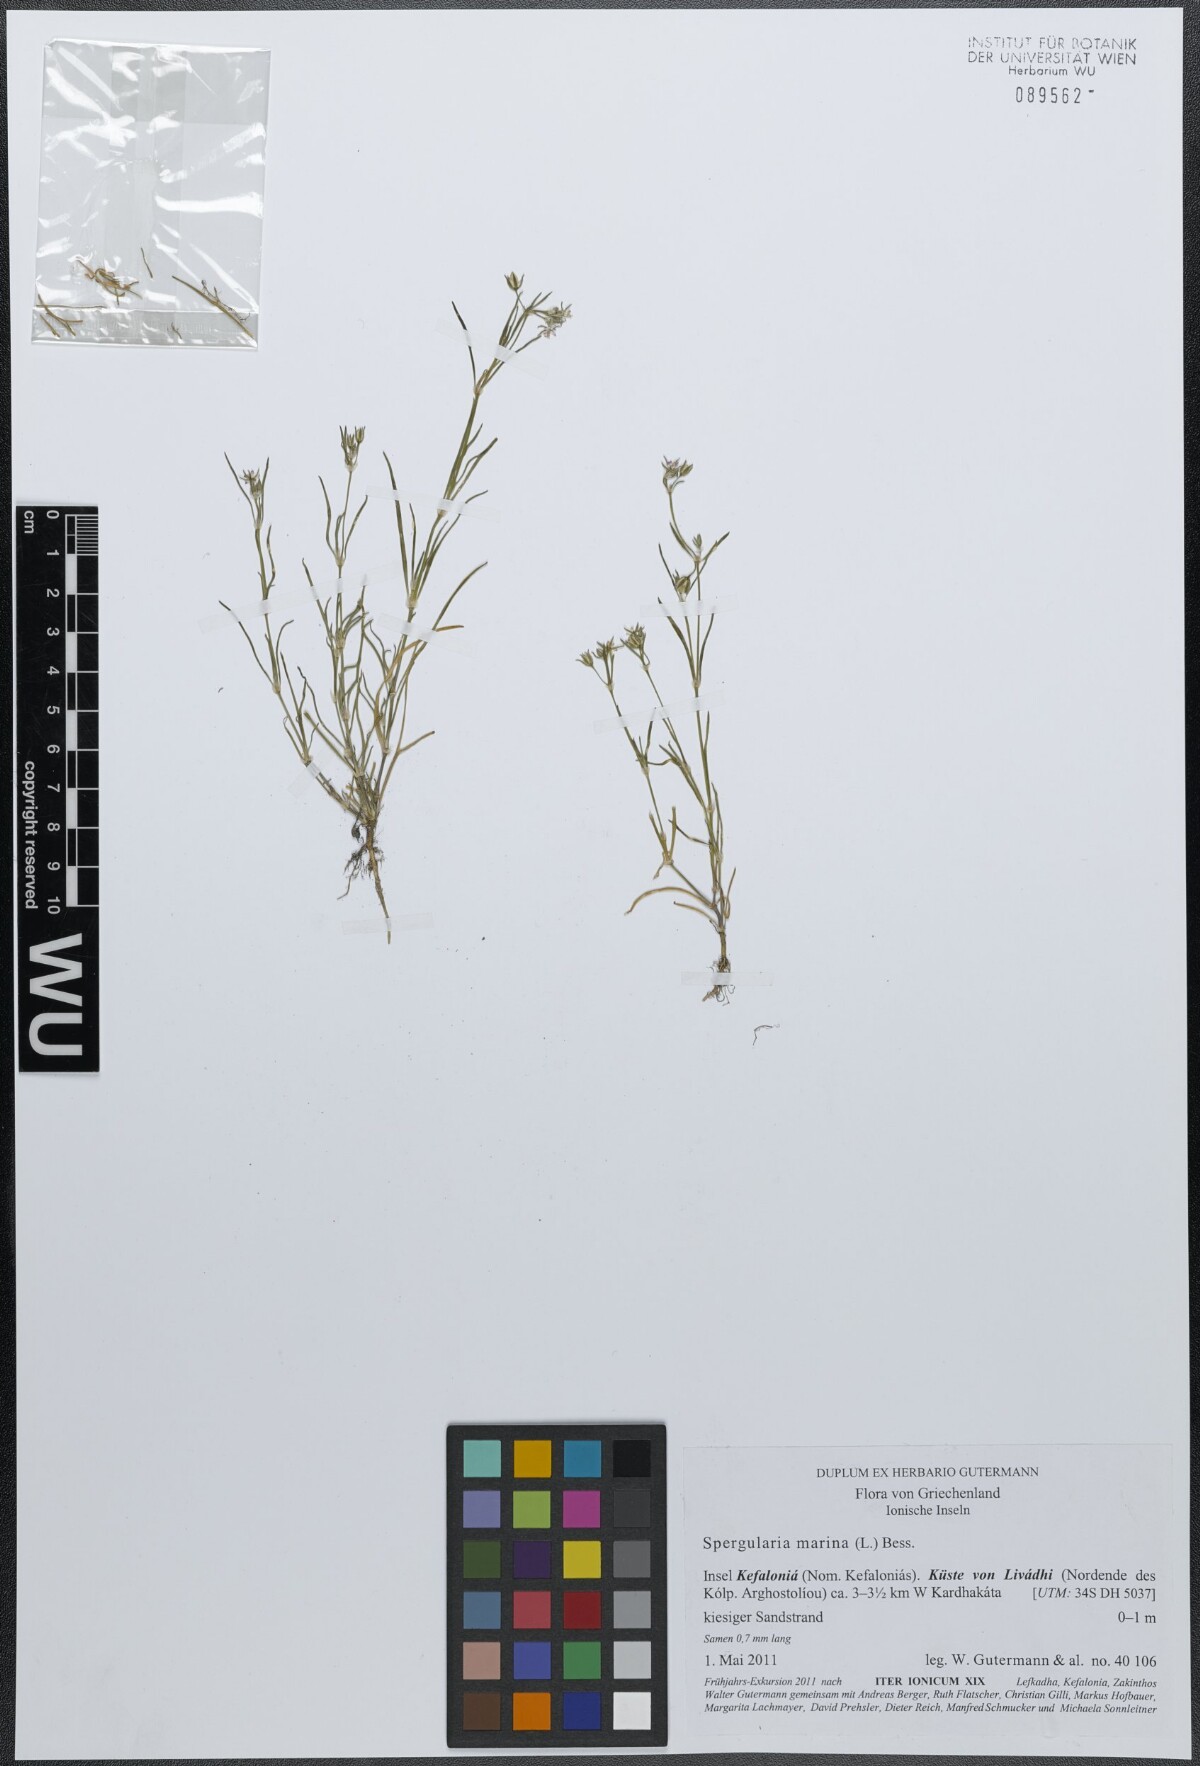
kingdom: Plantae
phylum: Tracheophyta
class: Magnoliopsida
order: Caryophyllales
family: Caryophyllaceae
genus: Spergularia
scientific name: Spergularia marina
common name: Lesser sea-spurrey
